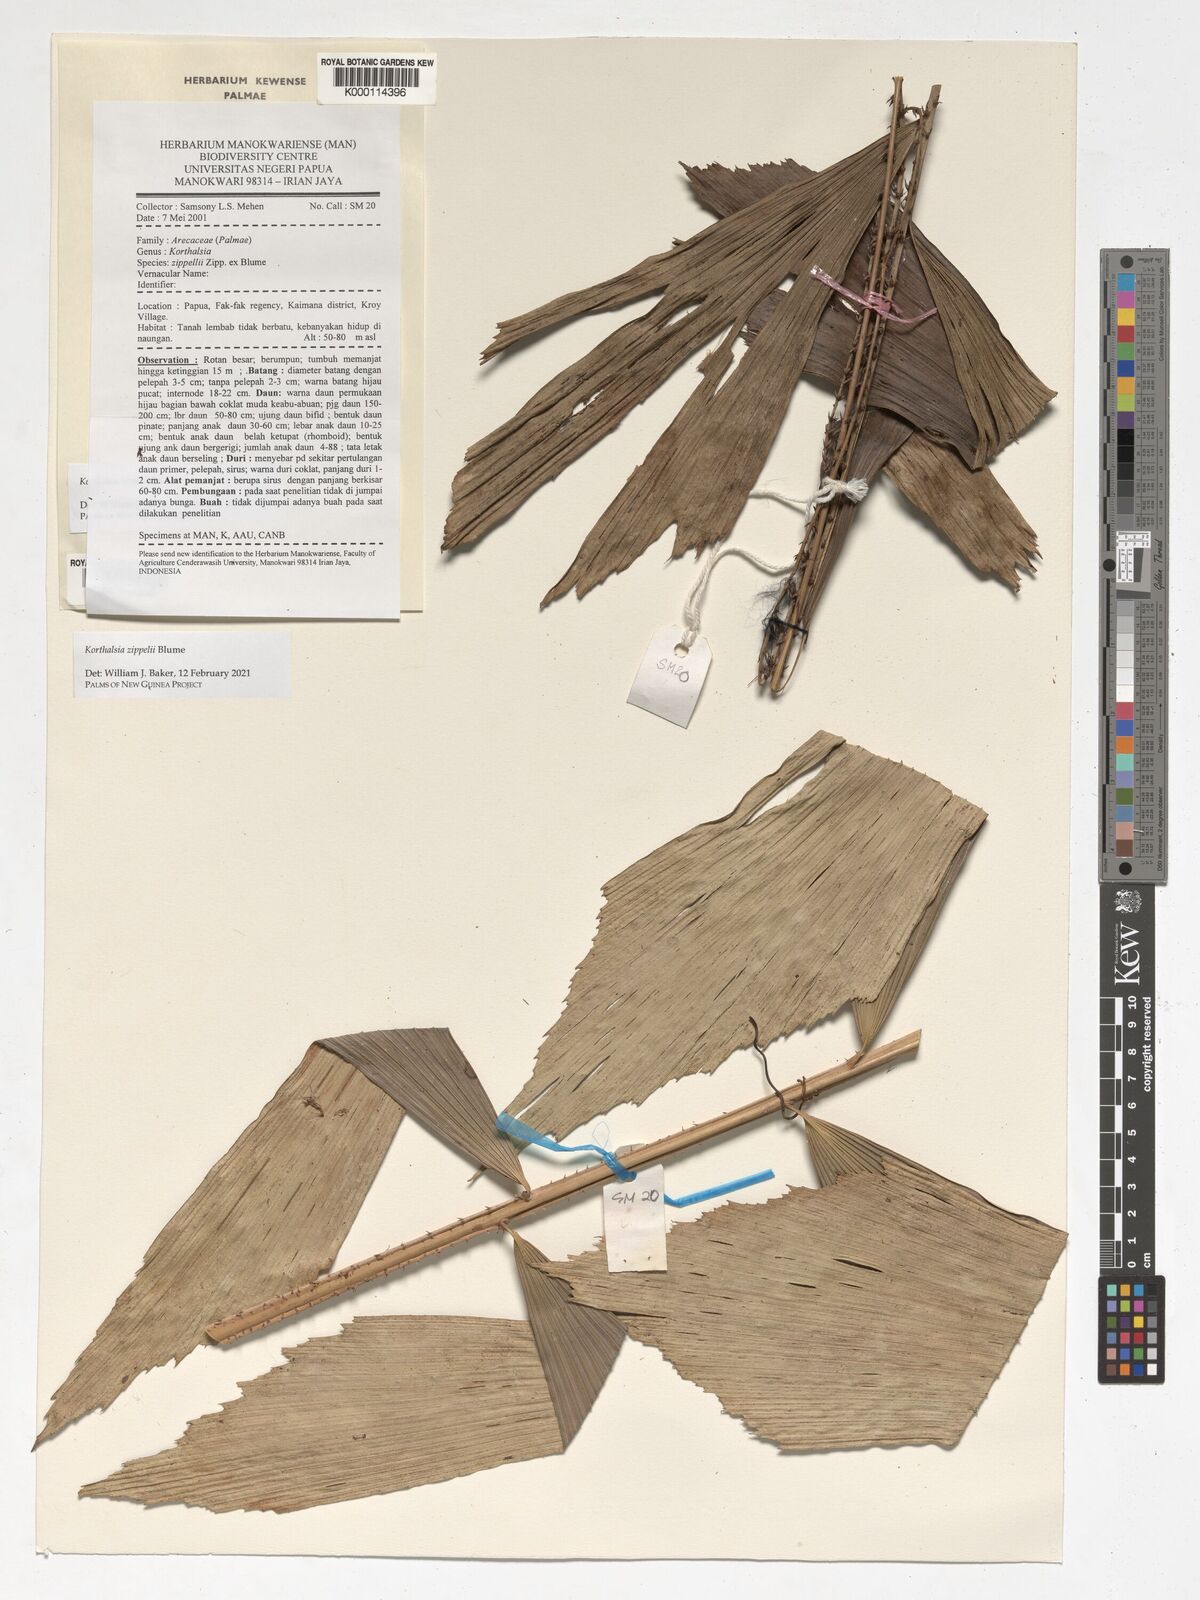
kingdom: Plantae
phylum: Tracheophyta
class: Liliopsida
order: Arecales
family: Arecaceae
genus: Korthalsia
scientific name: Korthalsia zippelii
